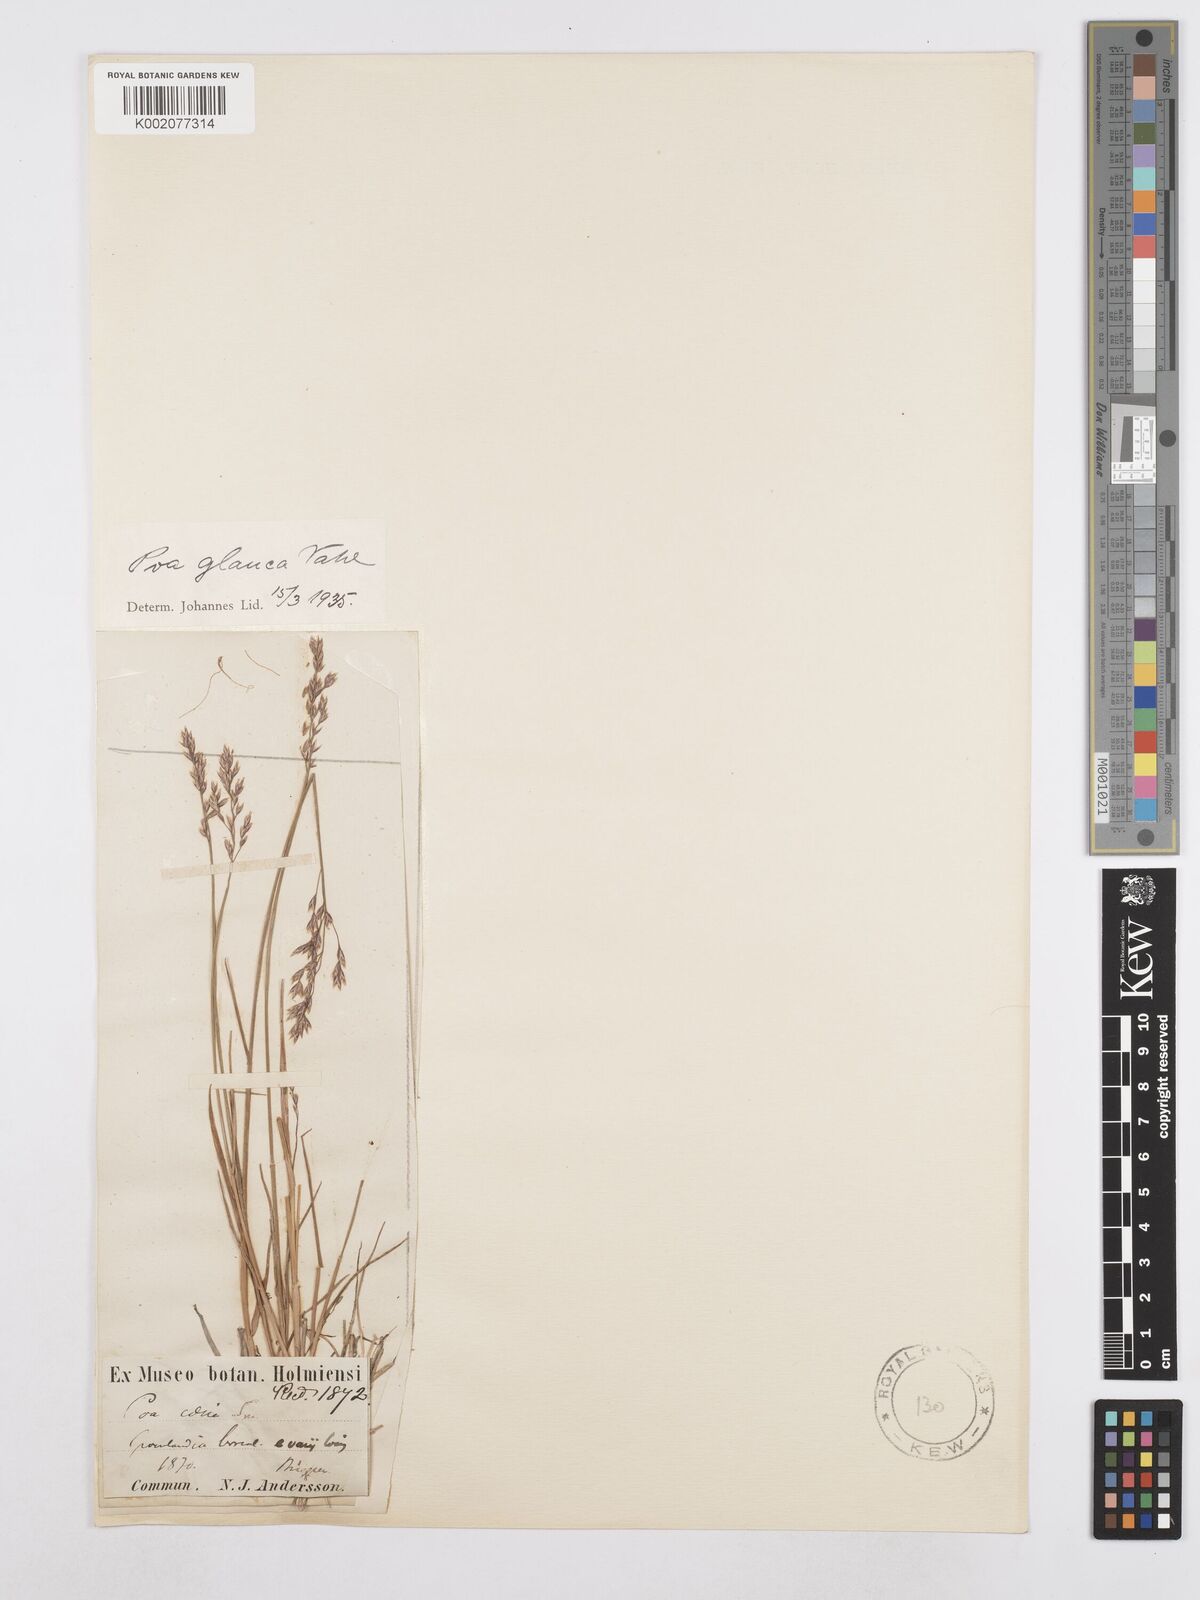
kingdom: Plantae
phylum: Tracheophyta
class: Liliopsida
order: Poales
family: Poaceae
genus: Poa
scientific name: Poa glauca
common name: Glaucous bluegrass
